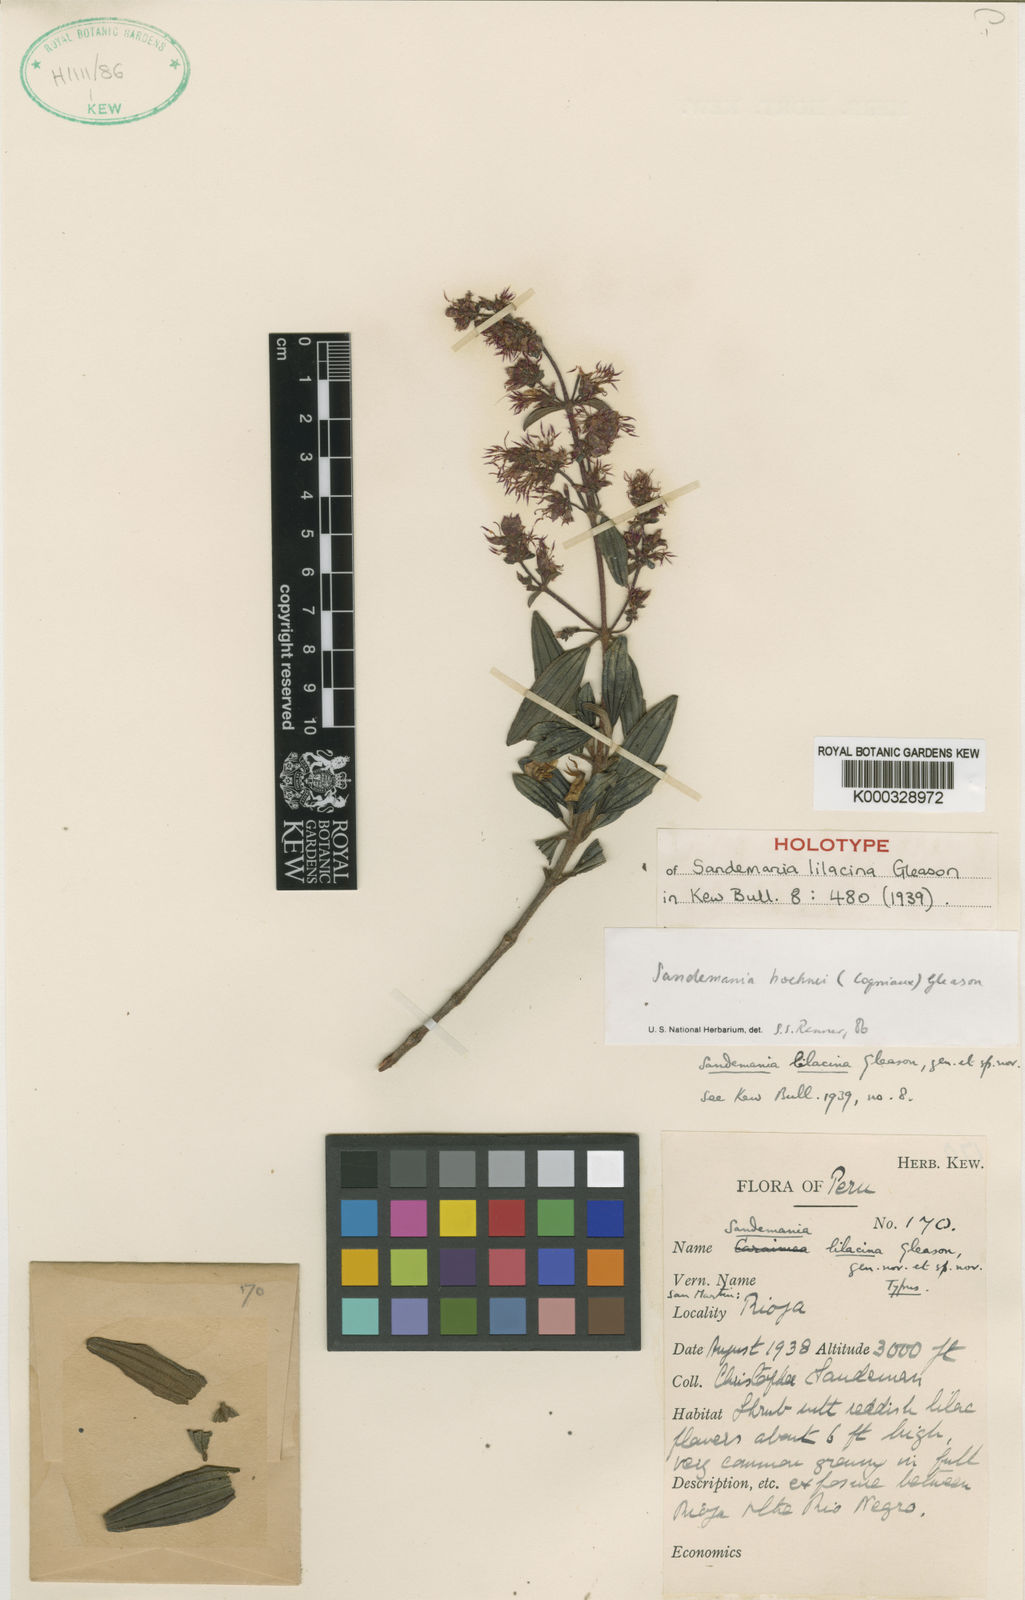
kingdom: Plantae
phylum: Tracheophyta
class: Magnoliopsida
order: Myrtales
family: Melastomataceae
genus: Sandemania
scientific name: Sandemania
